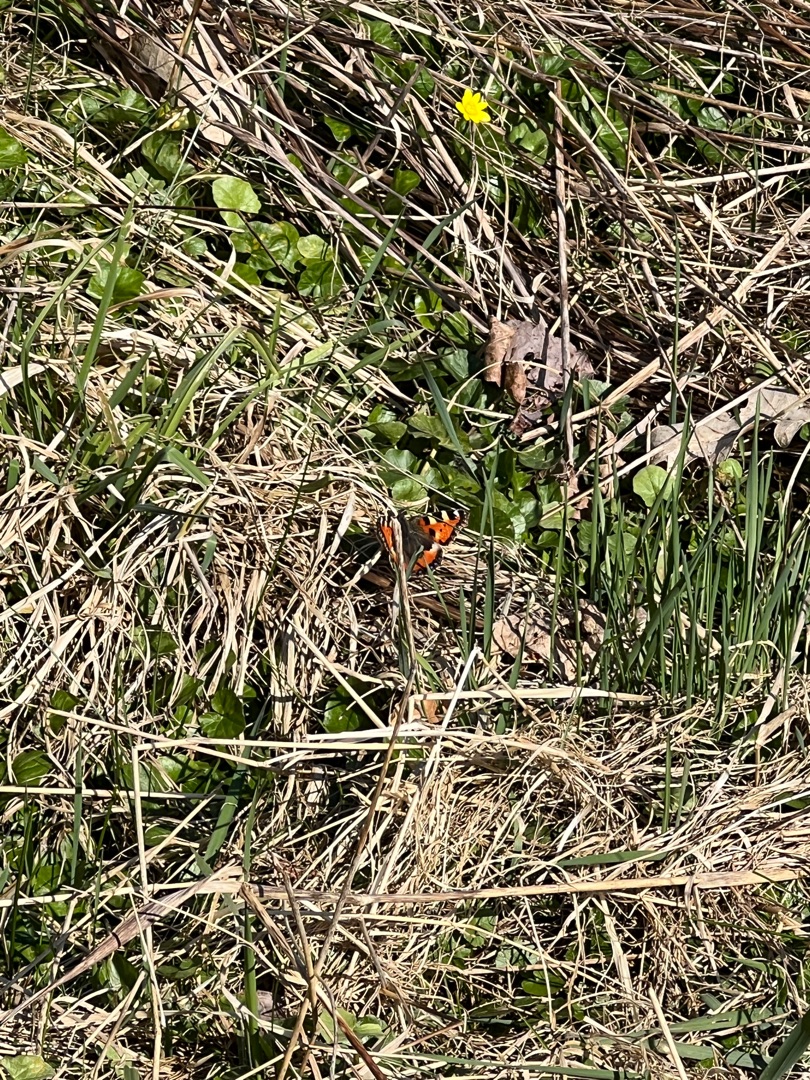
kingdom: Animalia
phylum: Arthropoda
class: Insecta
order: Lepidoptera
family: Nymphalidae
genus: Aglais
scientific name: Aglais urticae
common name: Nældens takvinge
